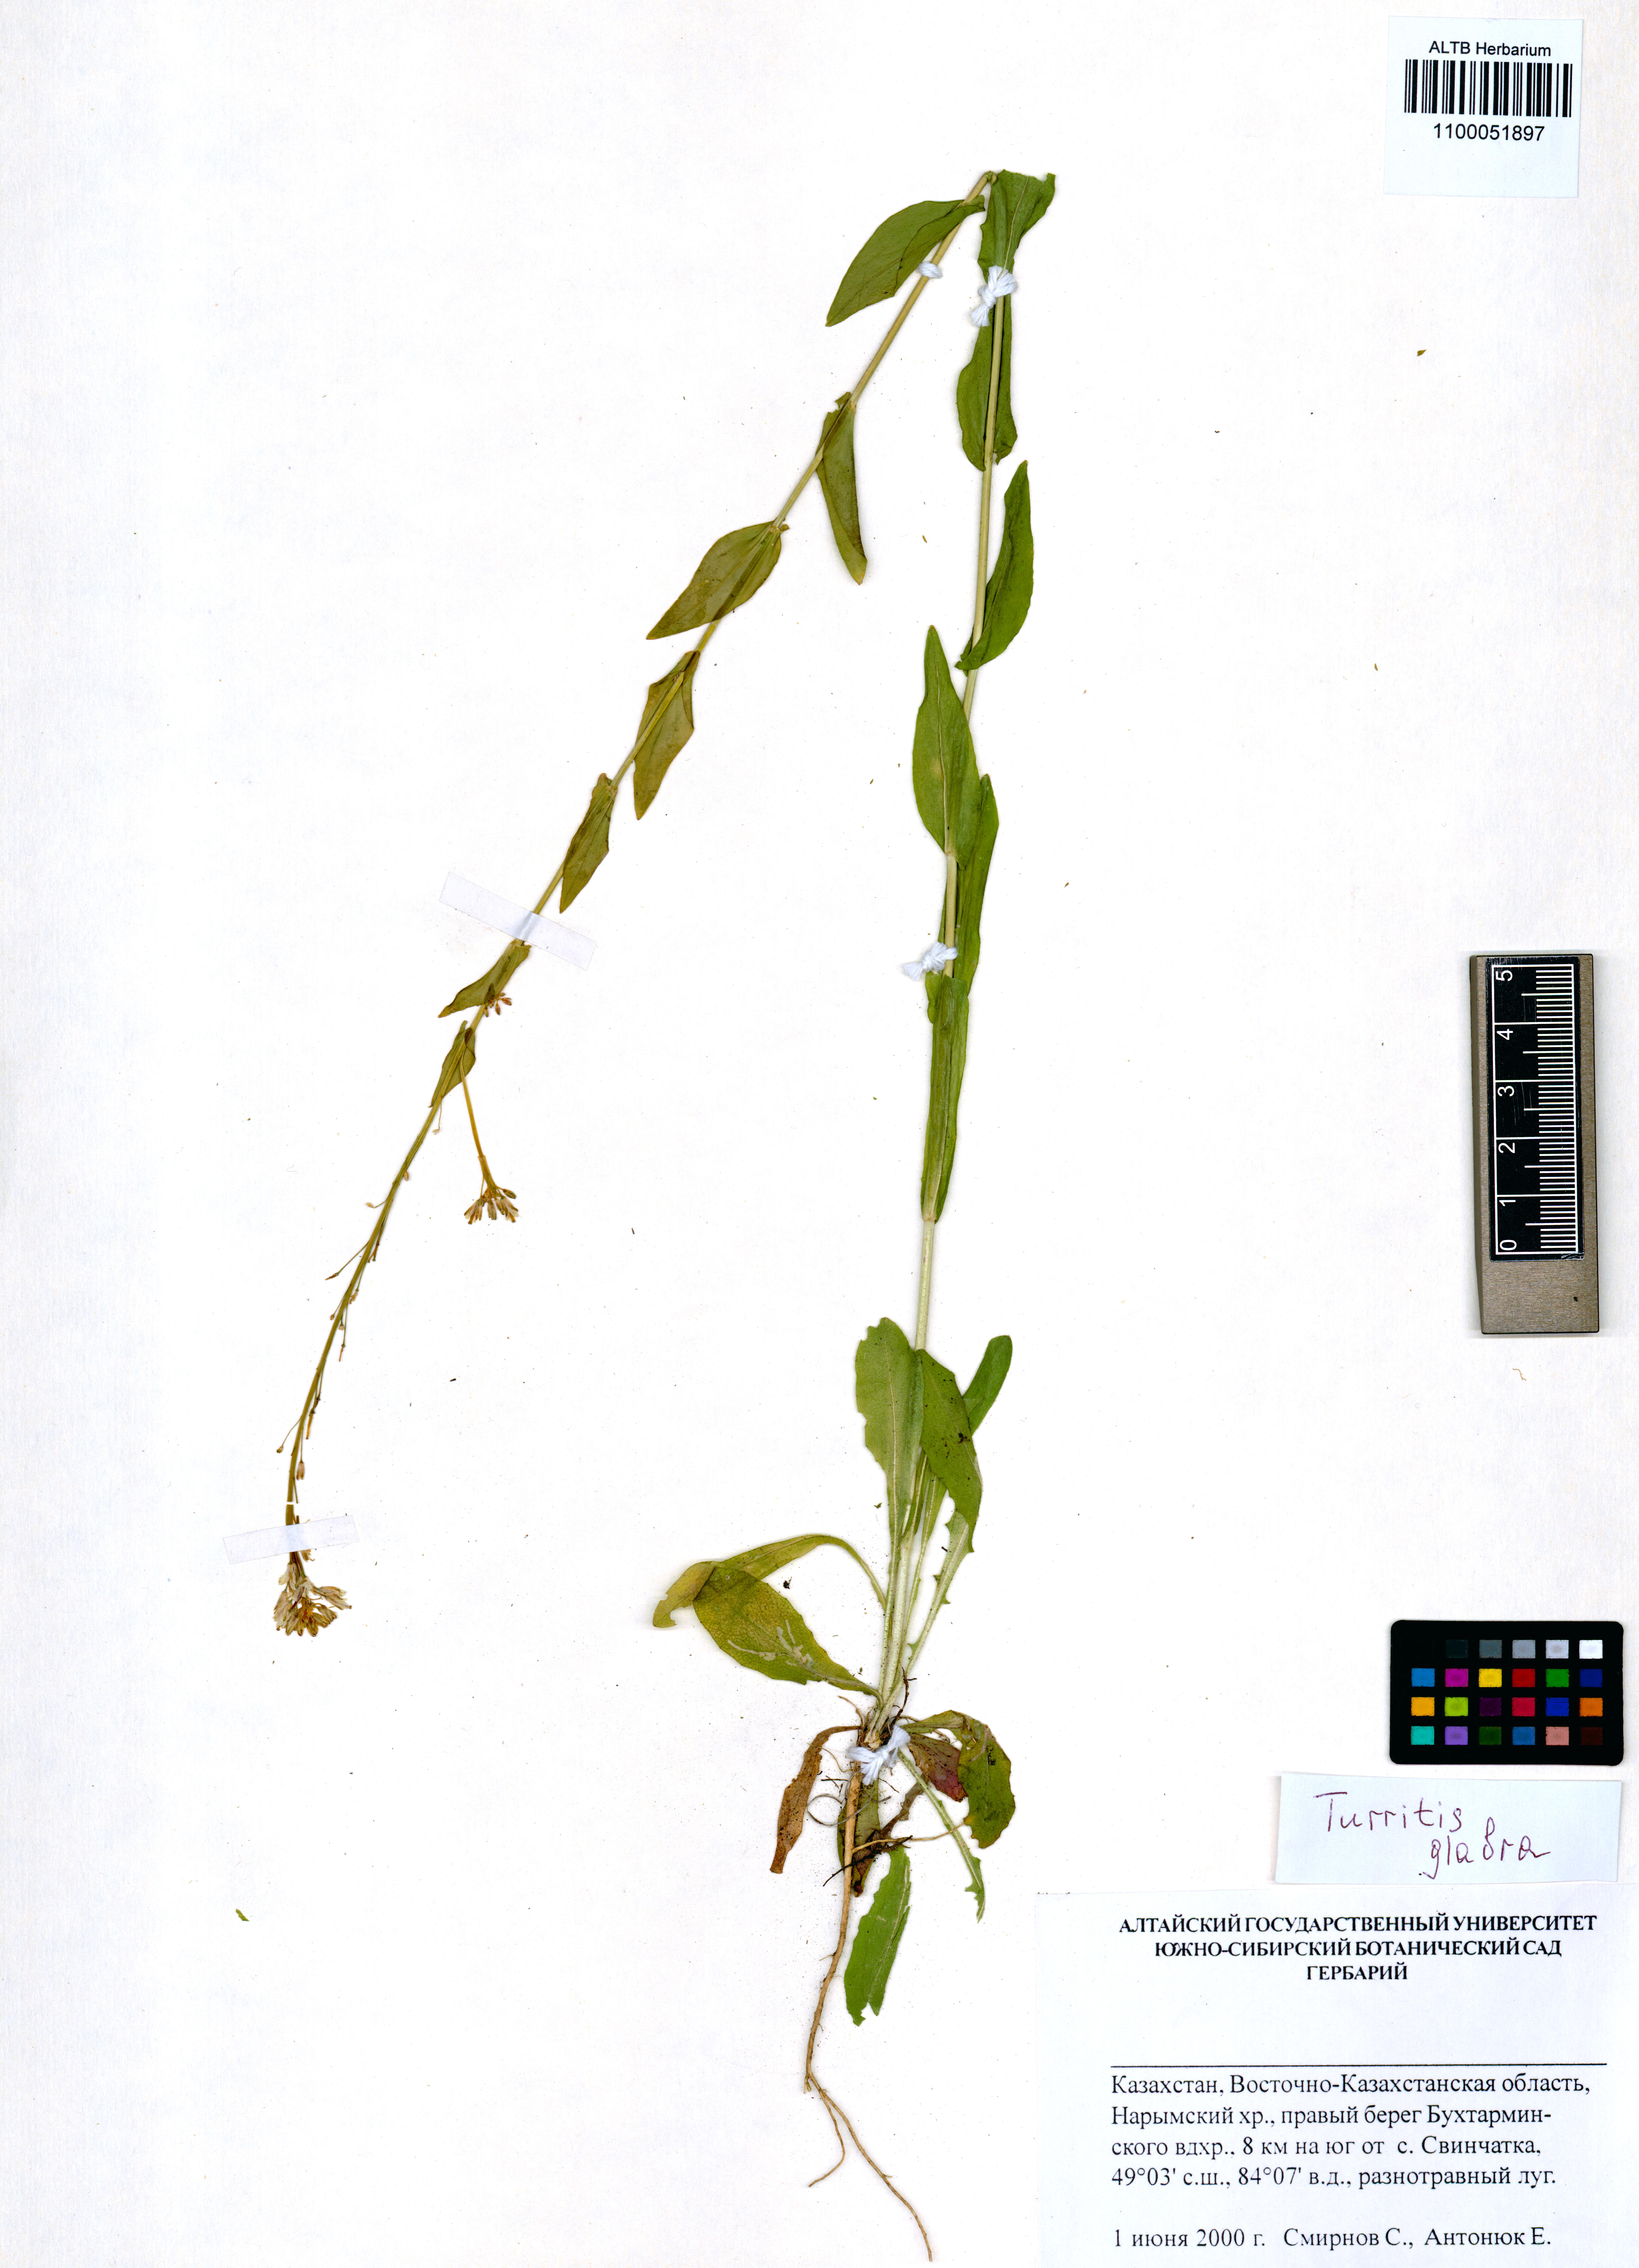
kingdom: Plantae
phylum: Tracheophyta
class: Magnoliopsida
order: Brassicales
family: Brassicaceae
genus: Turritis
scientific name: Turritis glabra
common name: Tower rockcress
